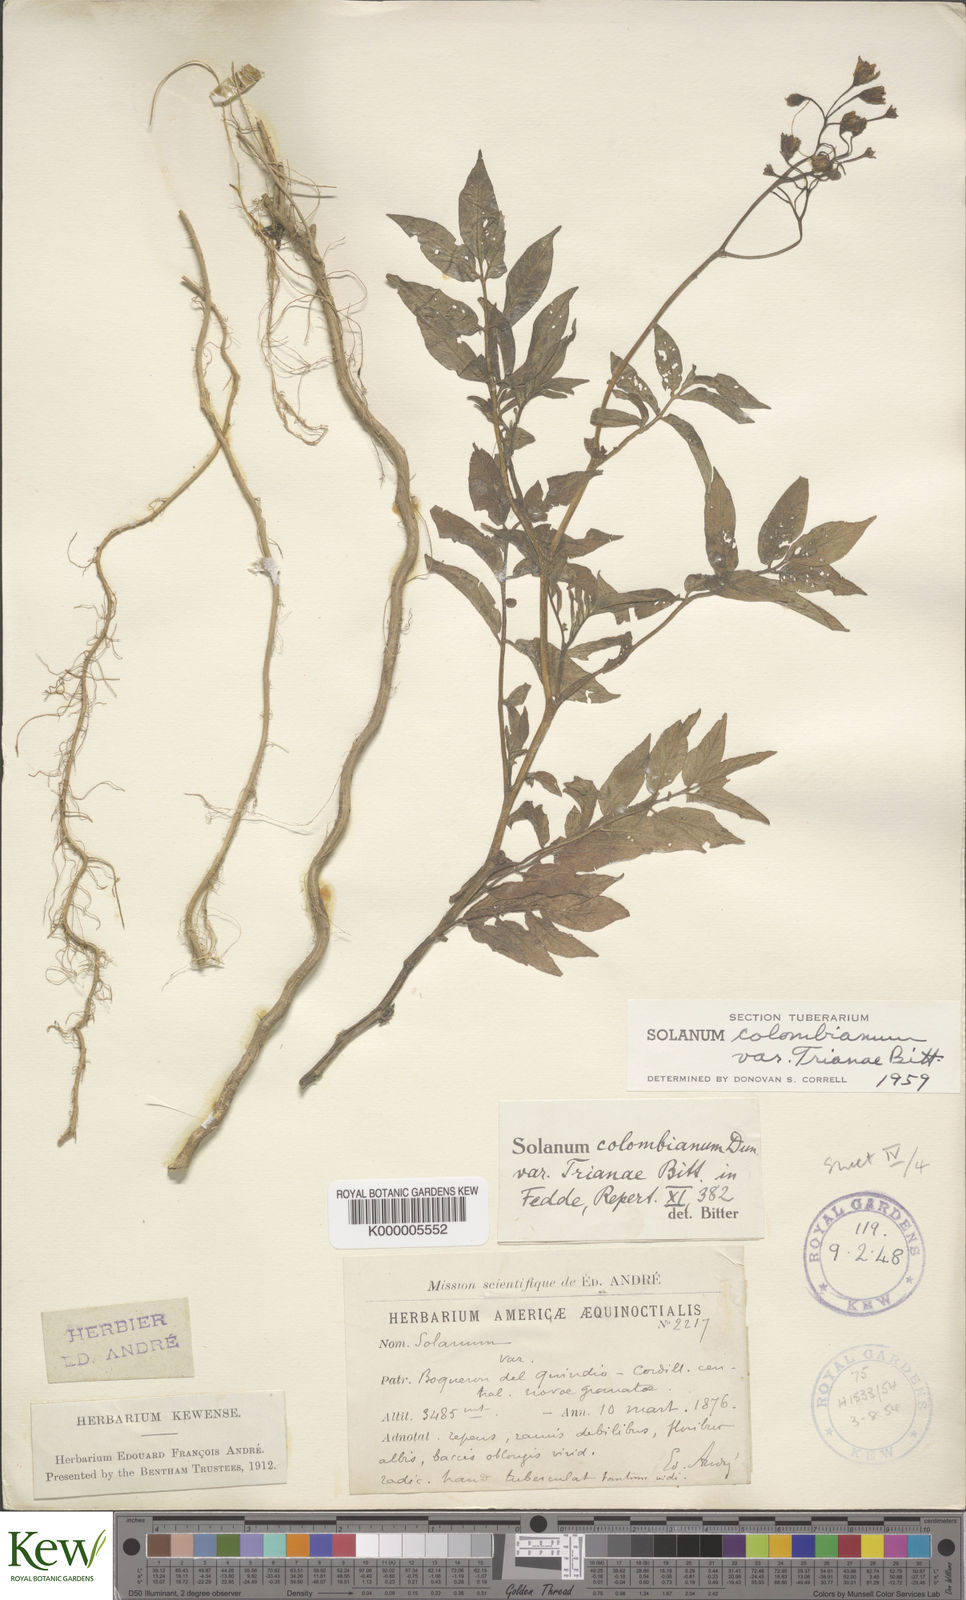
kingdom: Plantae
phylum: Tracheophyta
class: Magnoliopsida
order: Solanales
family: Solanaceae
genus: Solanum
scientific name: Solanum colombianum
